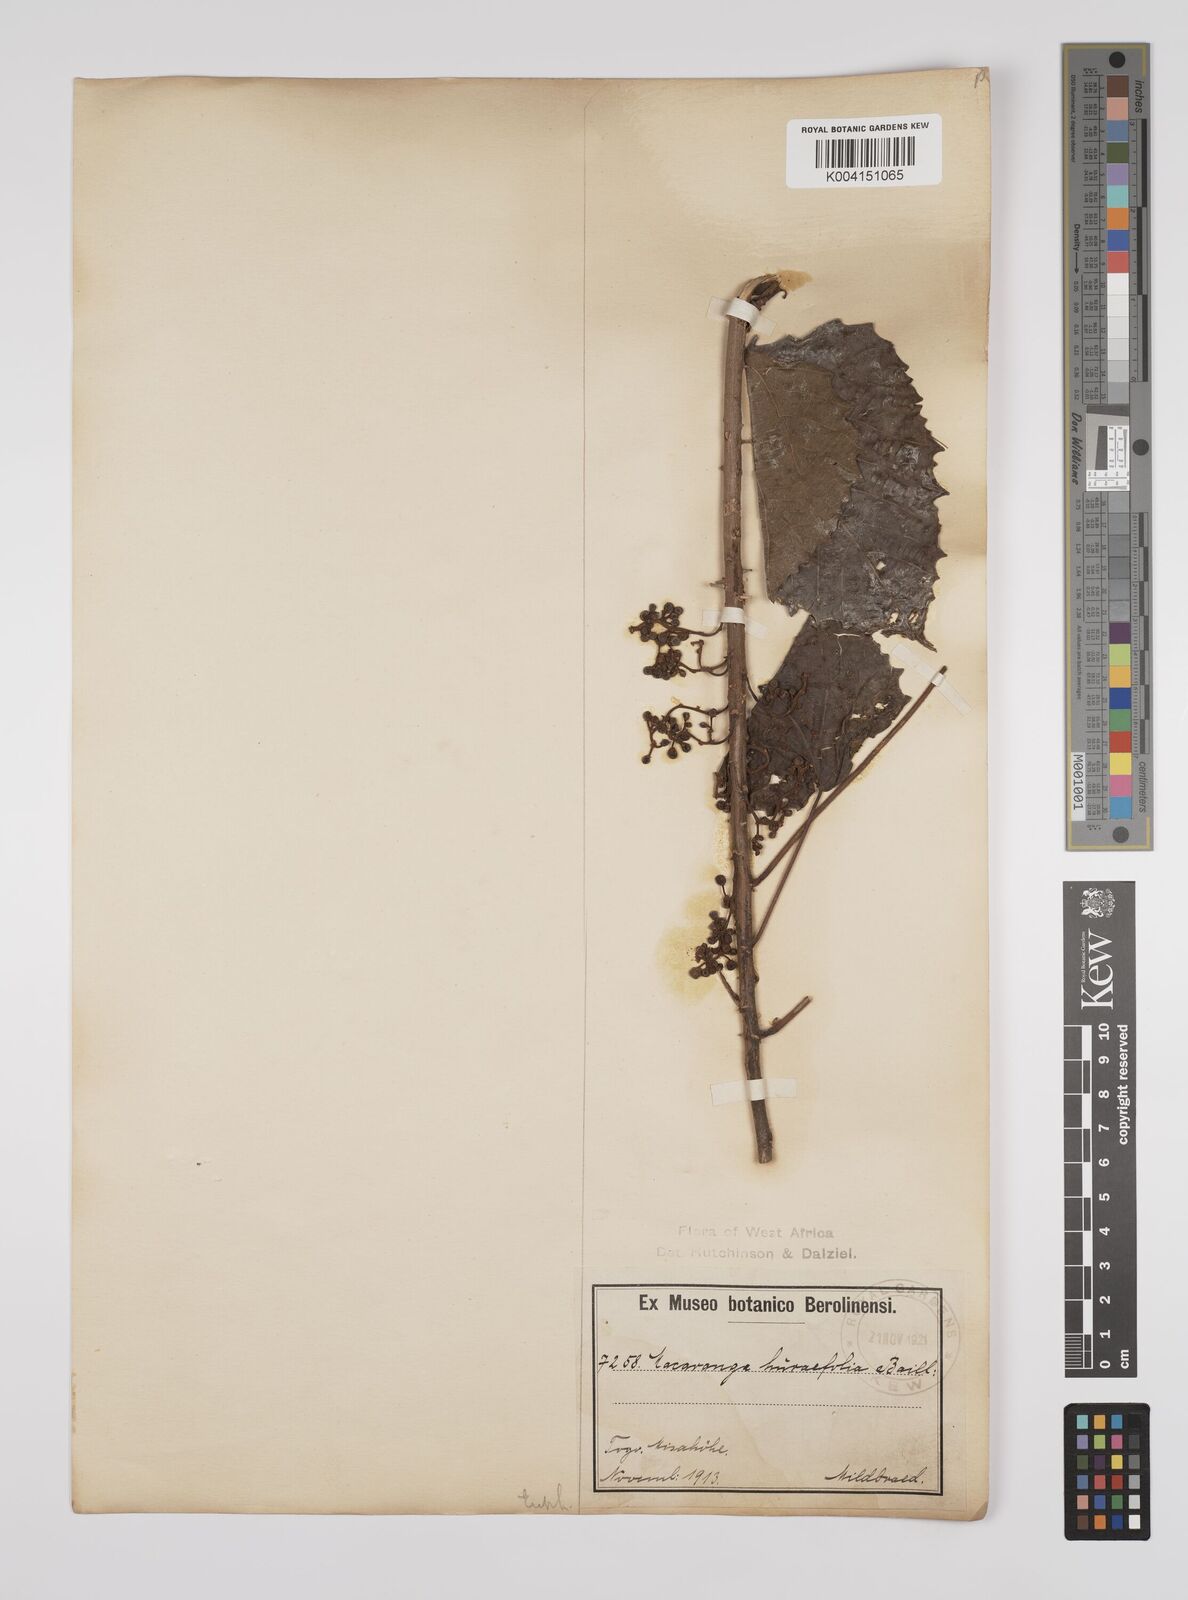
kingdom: Plantae
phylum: Tracheophyta
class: Magnoliopsida
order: Malpighiales
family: Euphorbiaceae
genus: Macaranga
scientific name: Macaranga hurifolia
